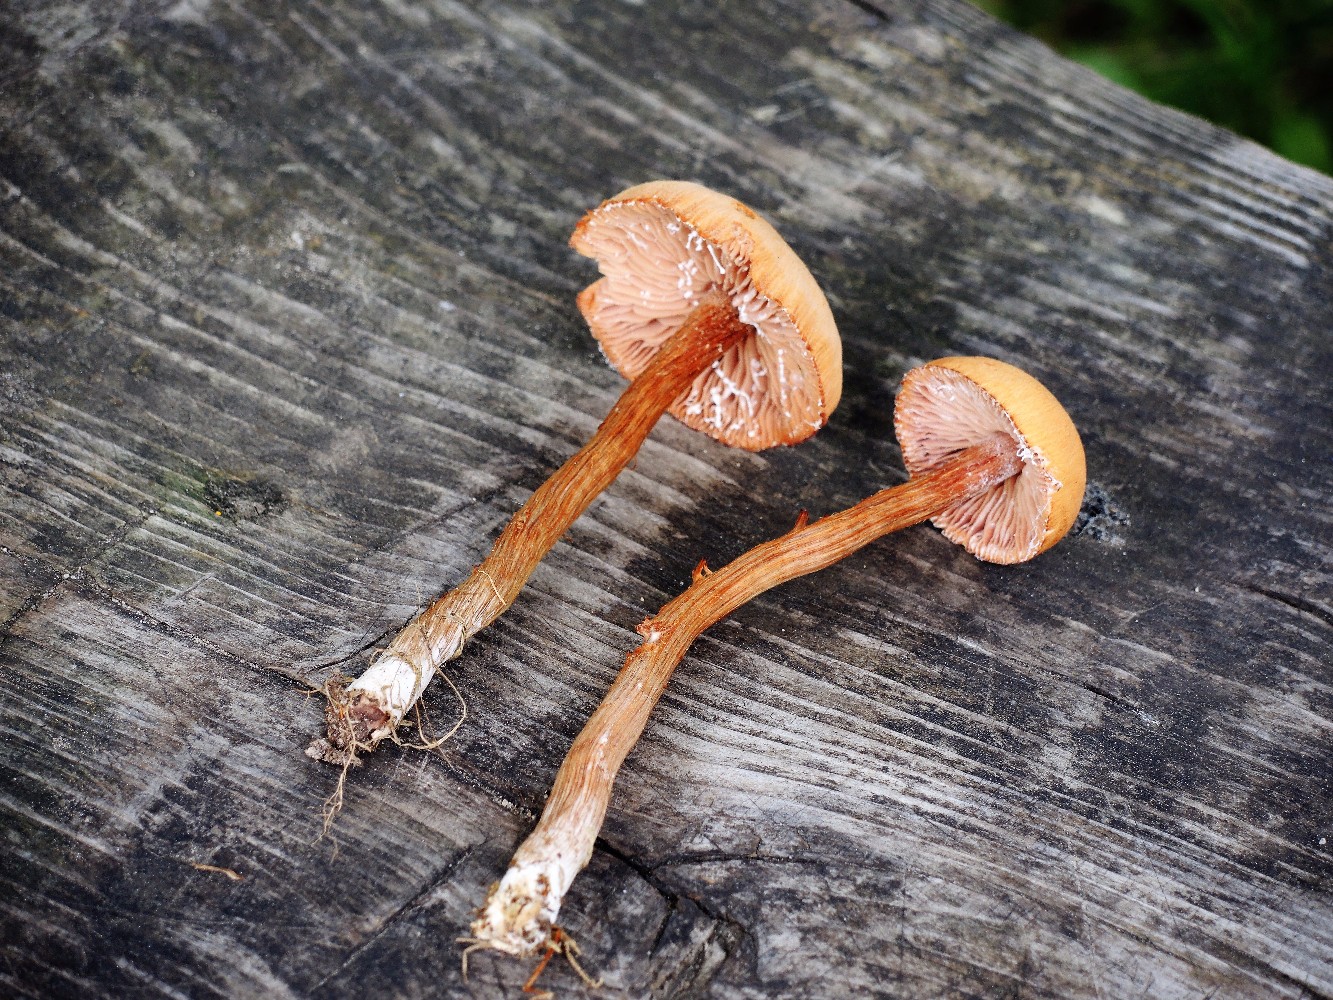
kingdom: Fungi
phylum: Basidiomycota
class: Agaricomycetes
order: Agaricales
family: Hydnangiaceae
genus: Laccaria
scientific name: Laccaria proxima
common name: stor ametysthat
